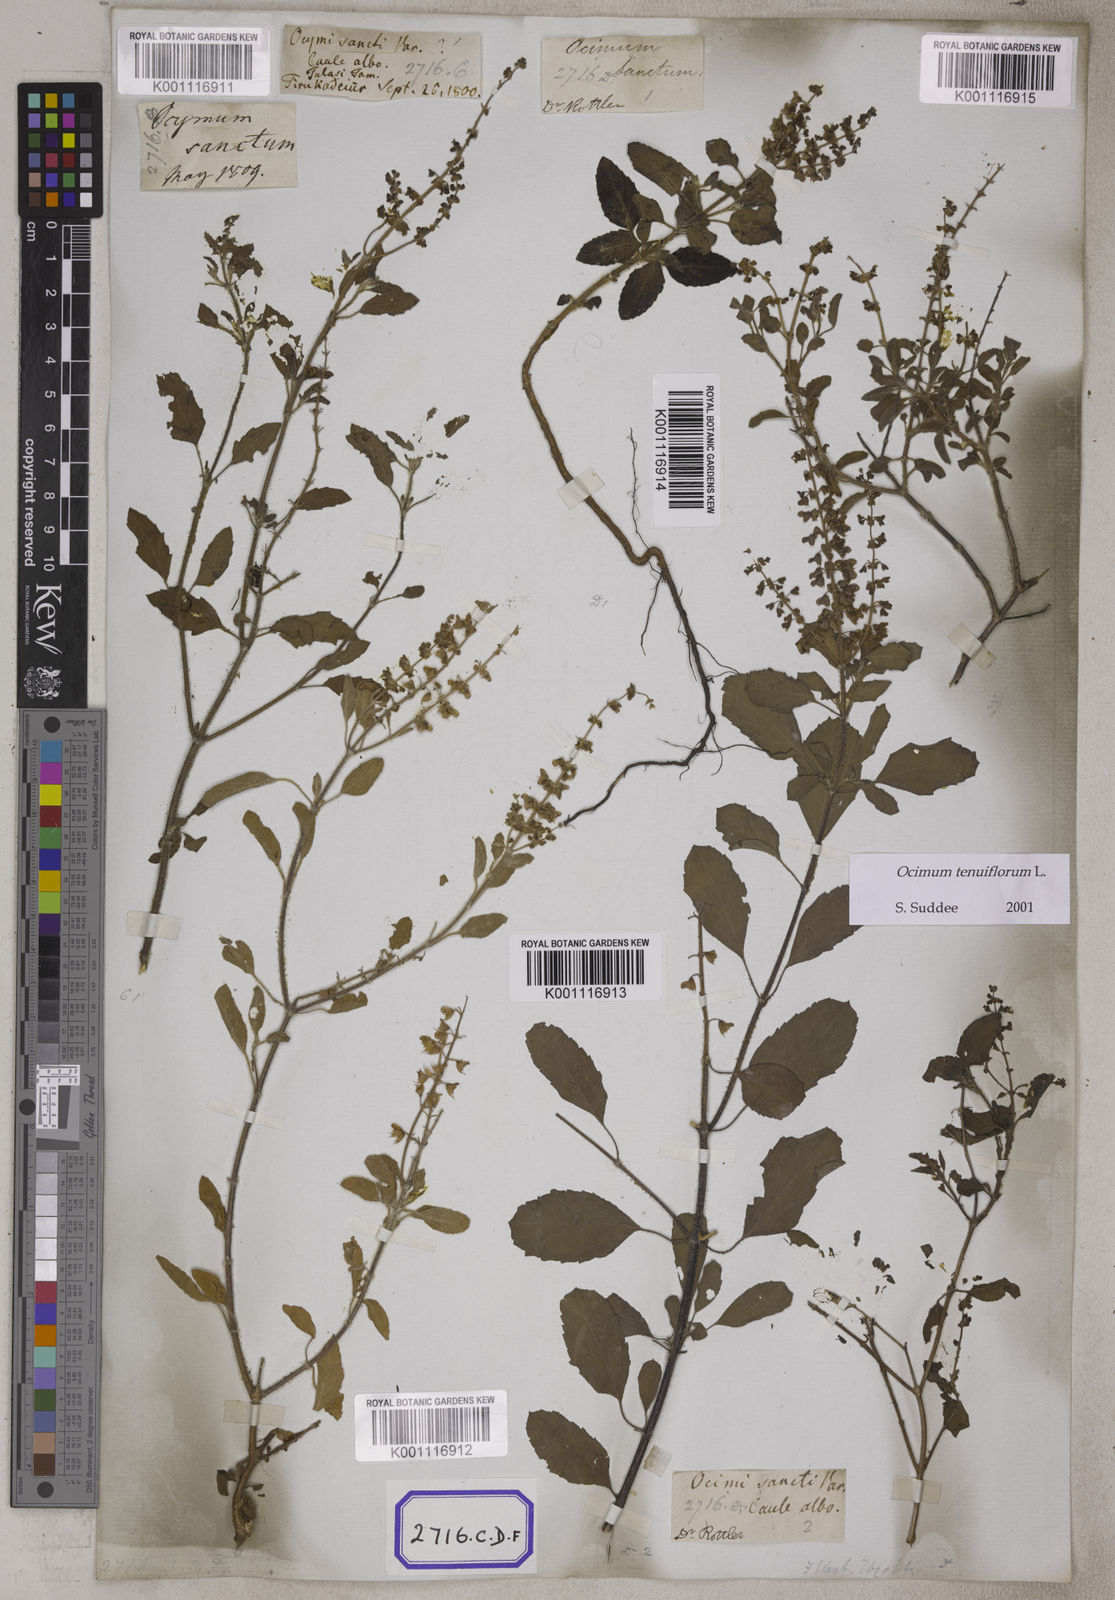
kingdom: Plantae
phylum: Tracheophyta
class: Magnoliopsida
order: Lamiales
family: Lamiaceae
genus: Ocimum
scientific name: Ocimum tenuiflorum
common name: Sacred basil
